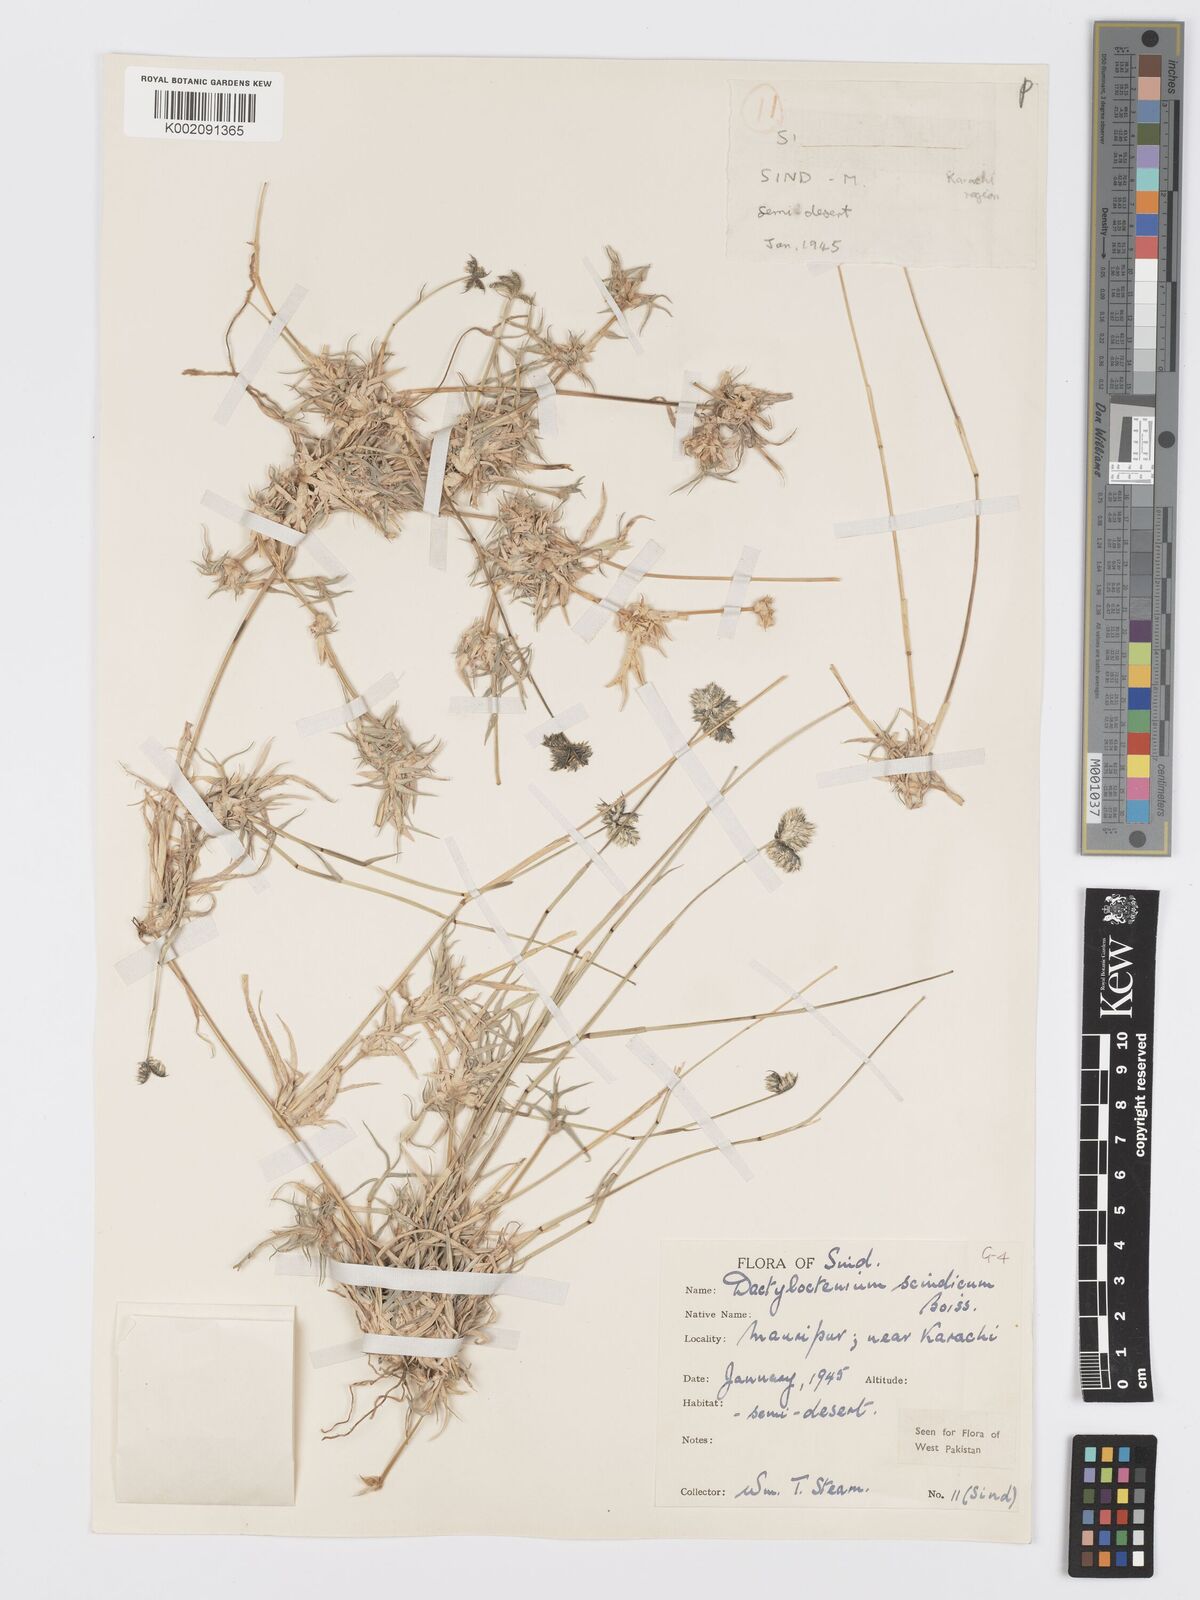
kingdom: Plantae
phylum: Tracheophyta
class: Liliopsida
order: Poales
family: Poaceae
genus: Dactyloctenium
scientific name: Dactyloctenium scindicum
